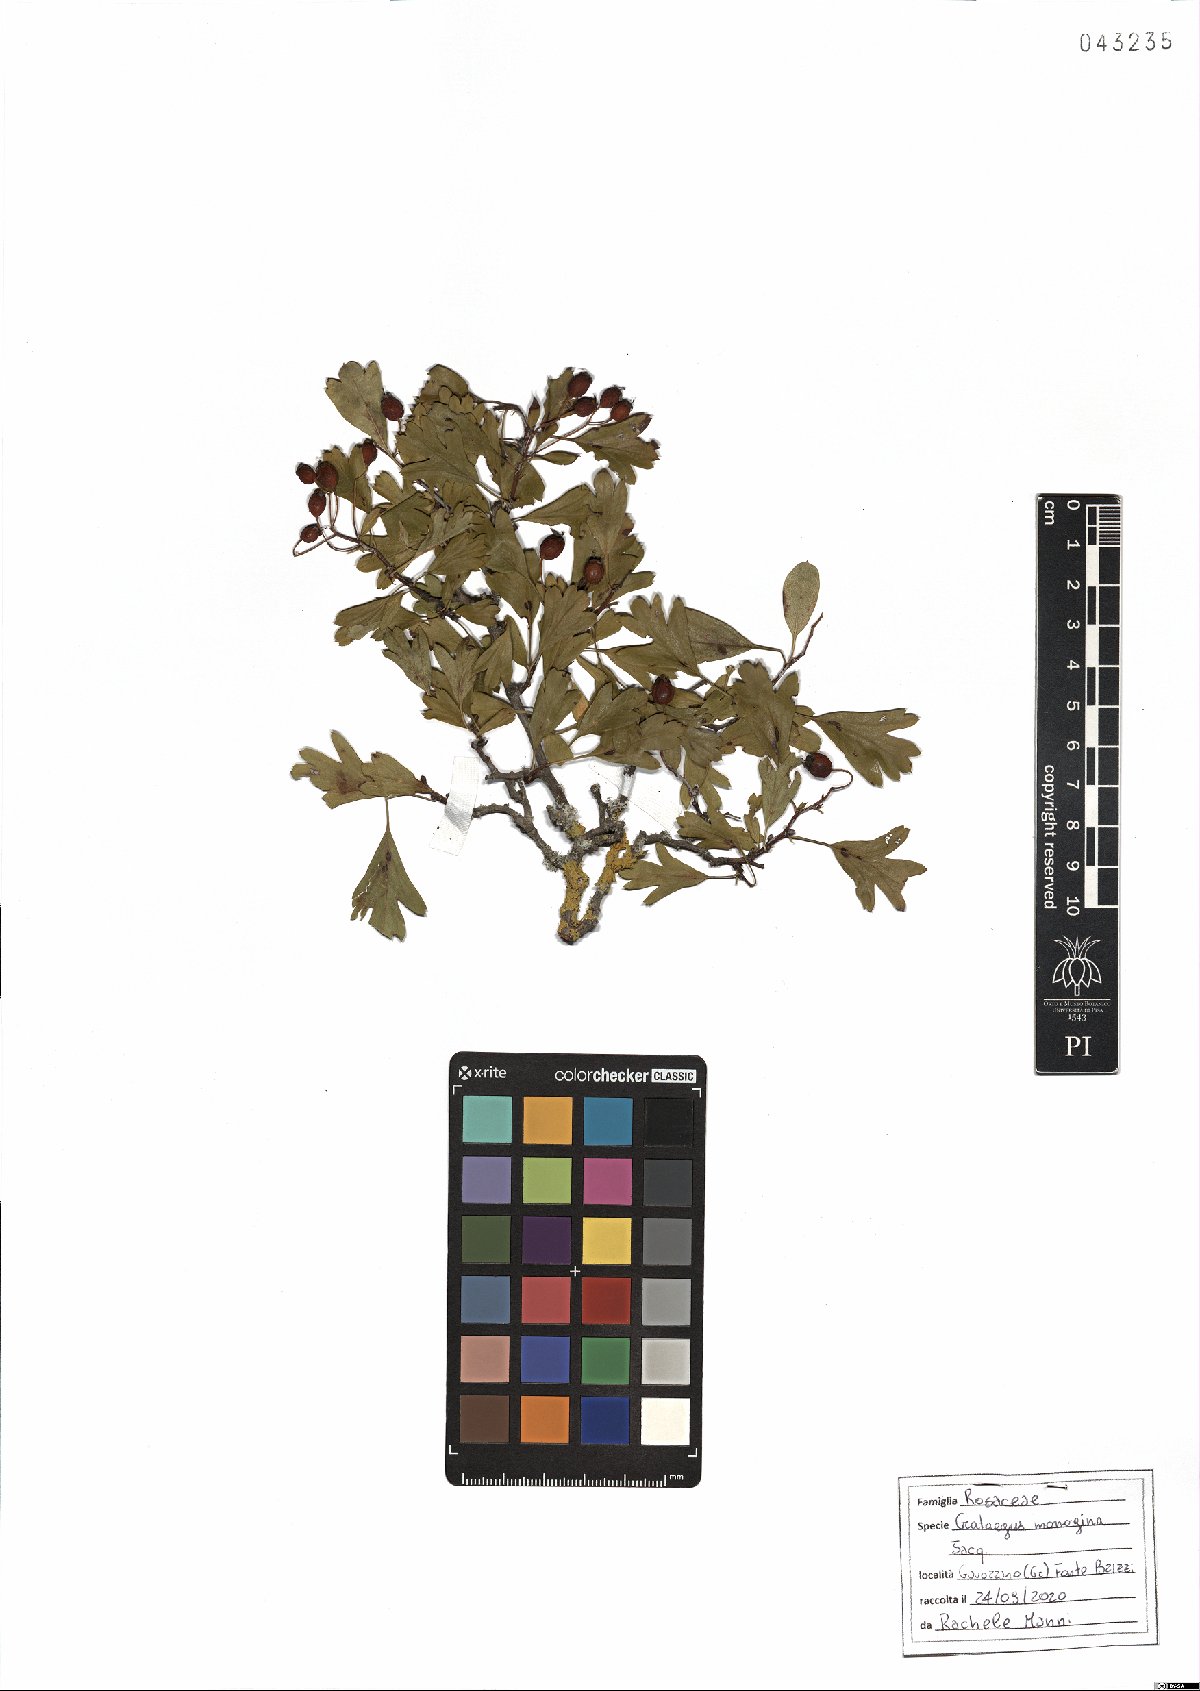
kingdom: Plantae
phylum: Tracheophyta
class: Magnoliopsida
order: Rosales
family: Rosaceae
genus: Crataegus
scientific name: Crataegus monogyna
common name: Hawthorn
